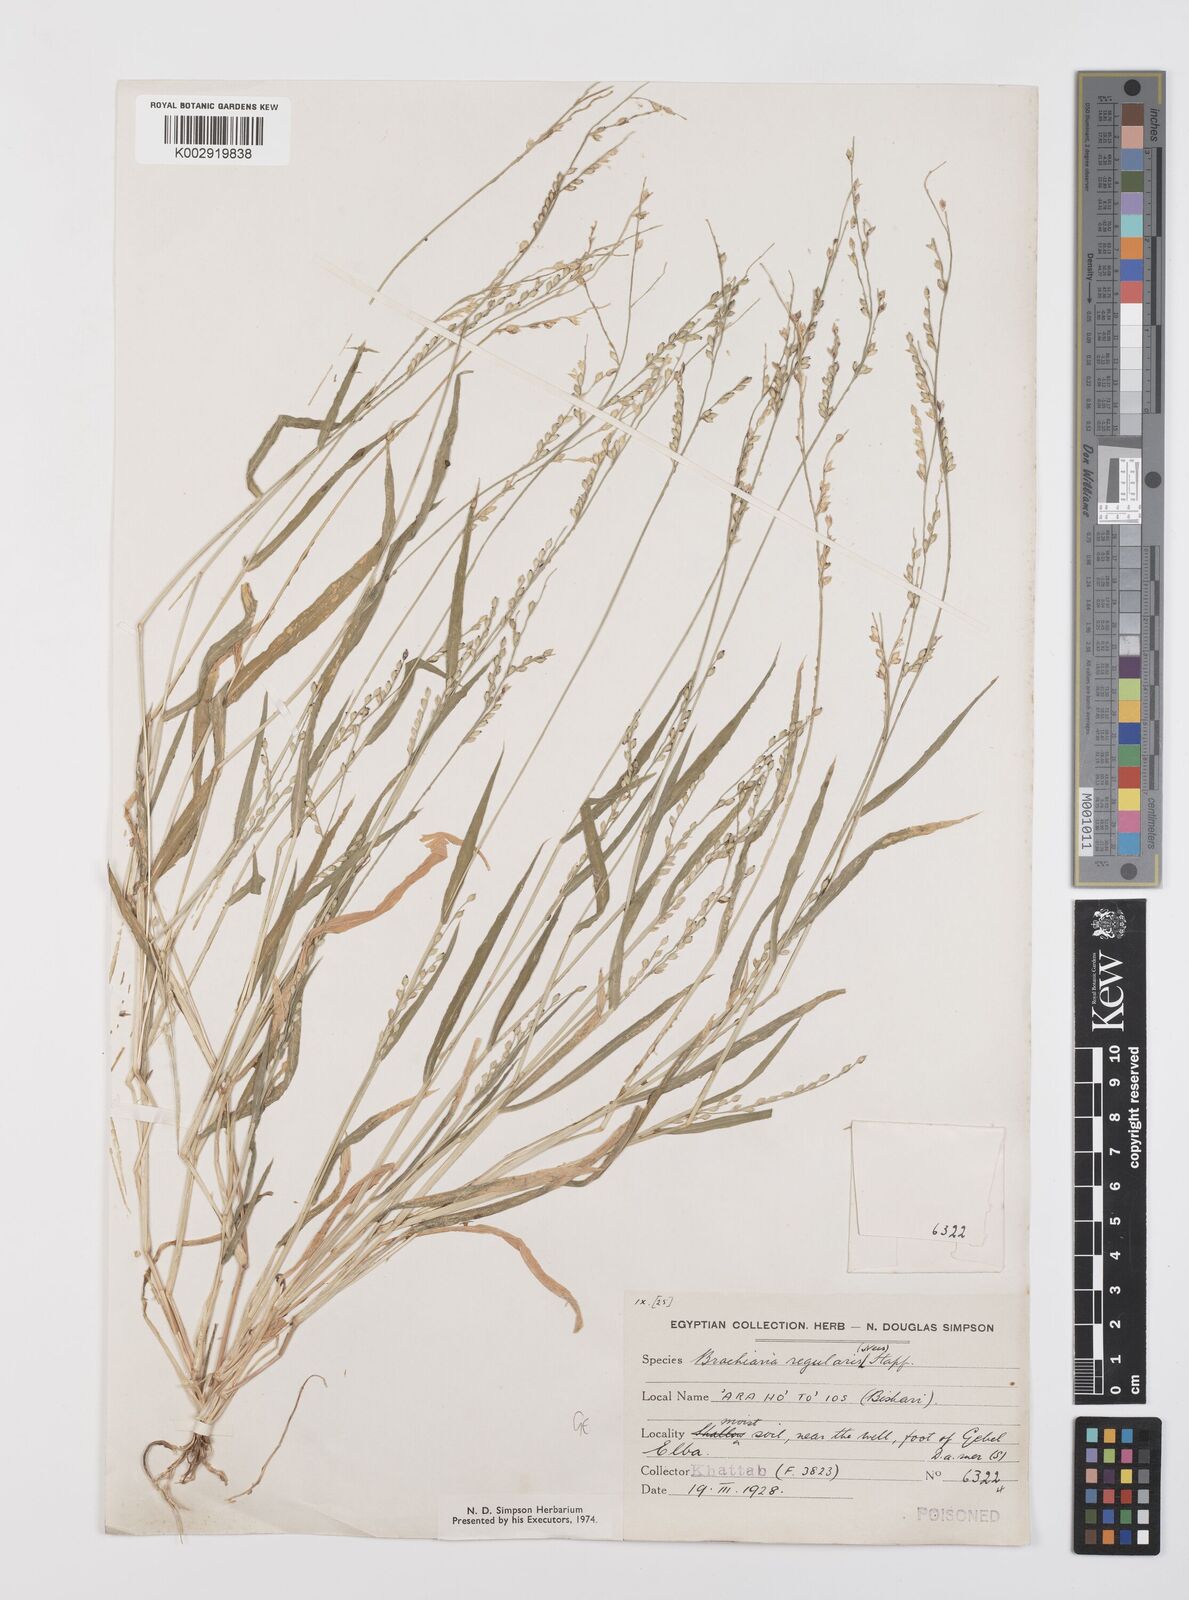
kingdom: Plantae
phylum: Tracheophyta
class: Liliopsida
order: Poales
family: Poaceae
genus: Urochloa
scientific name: Urochloa ramosa
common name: Browntop millet
